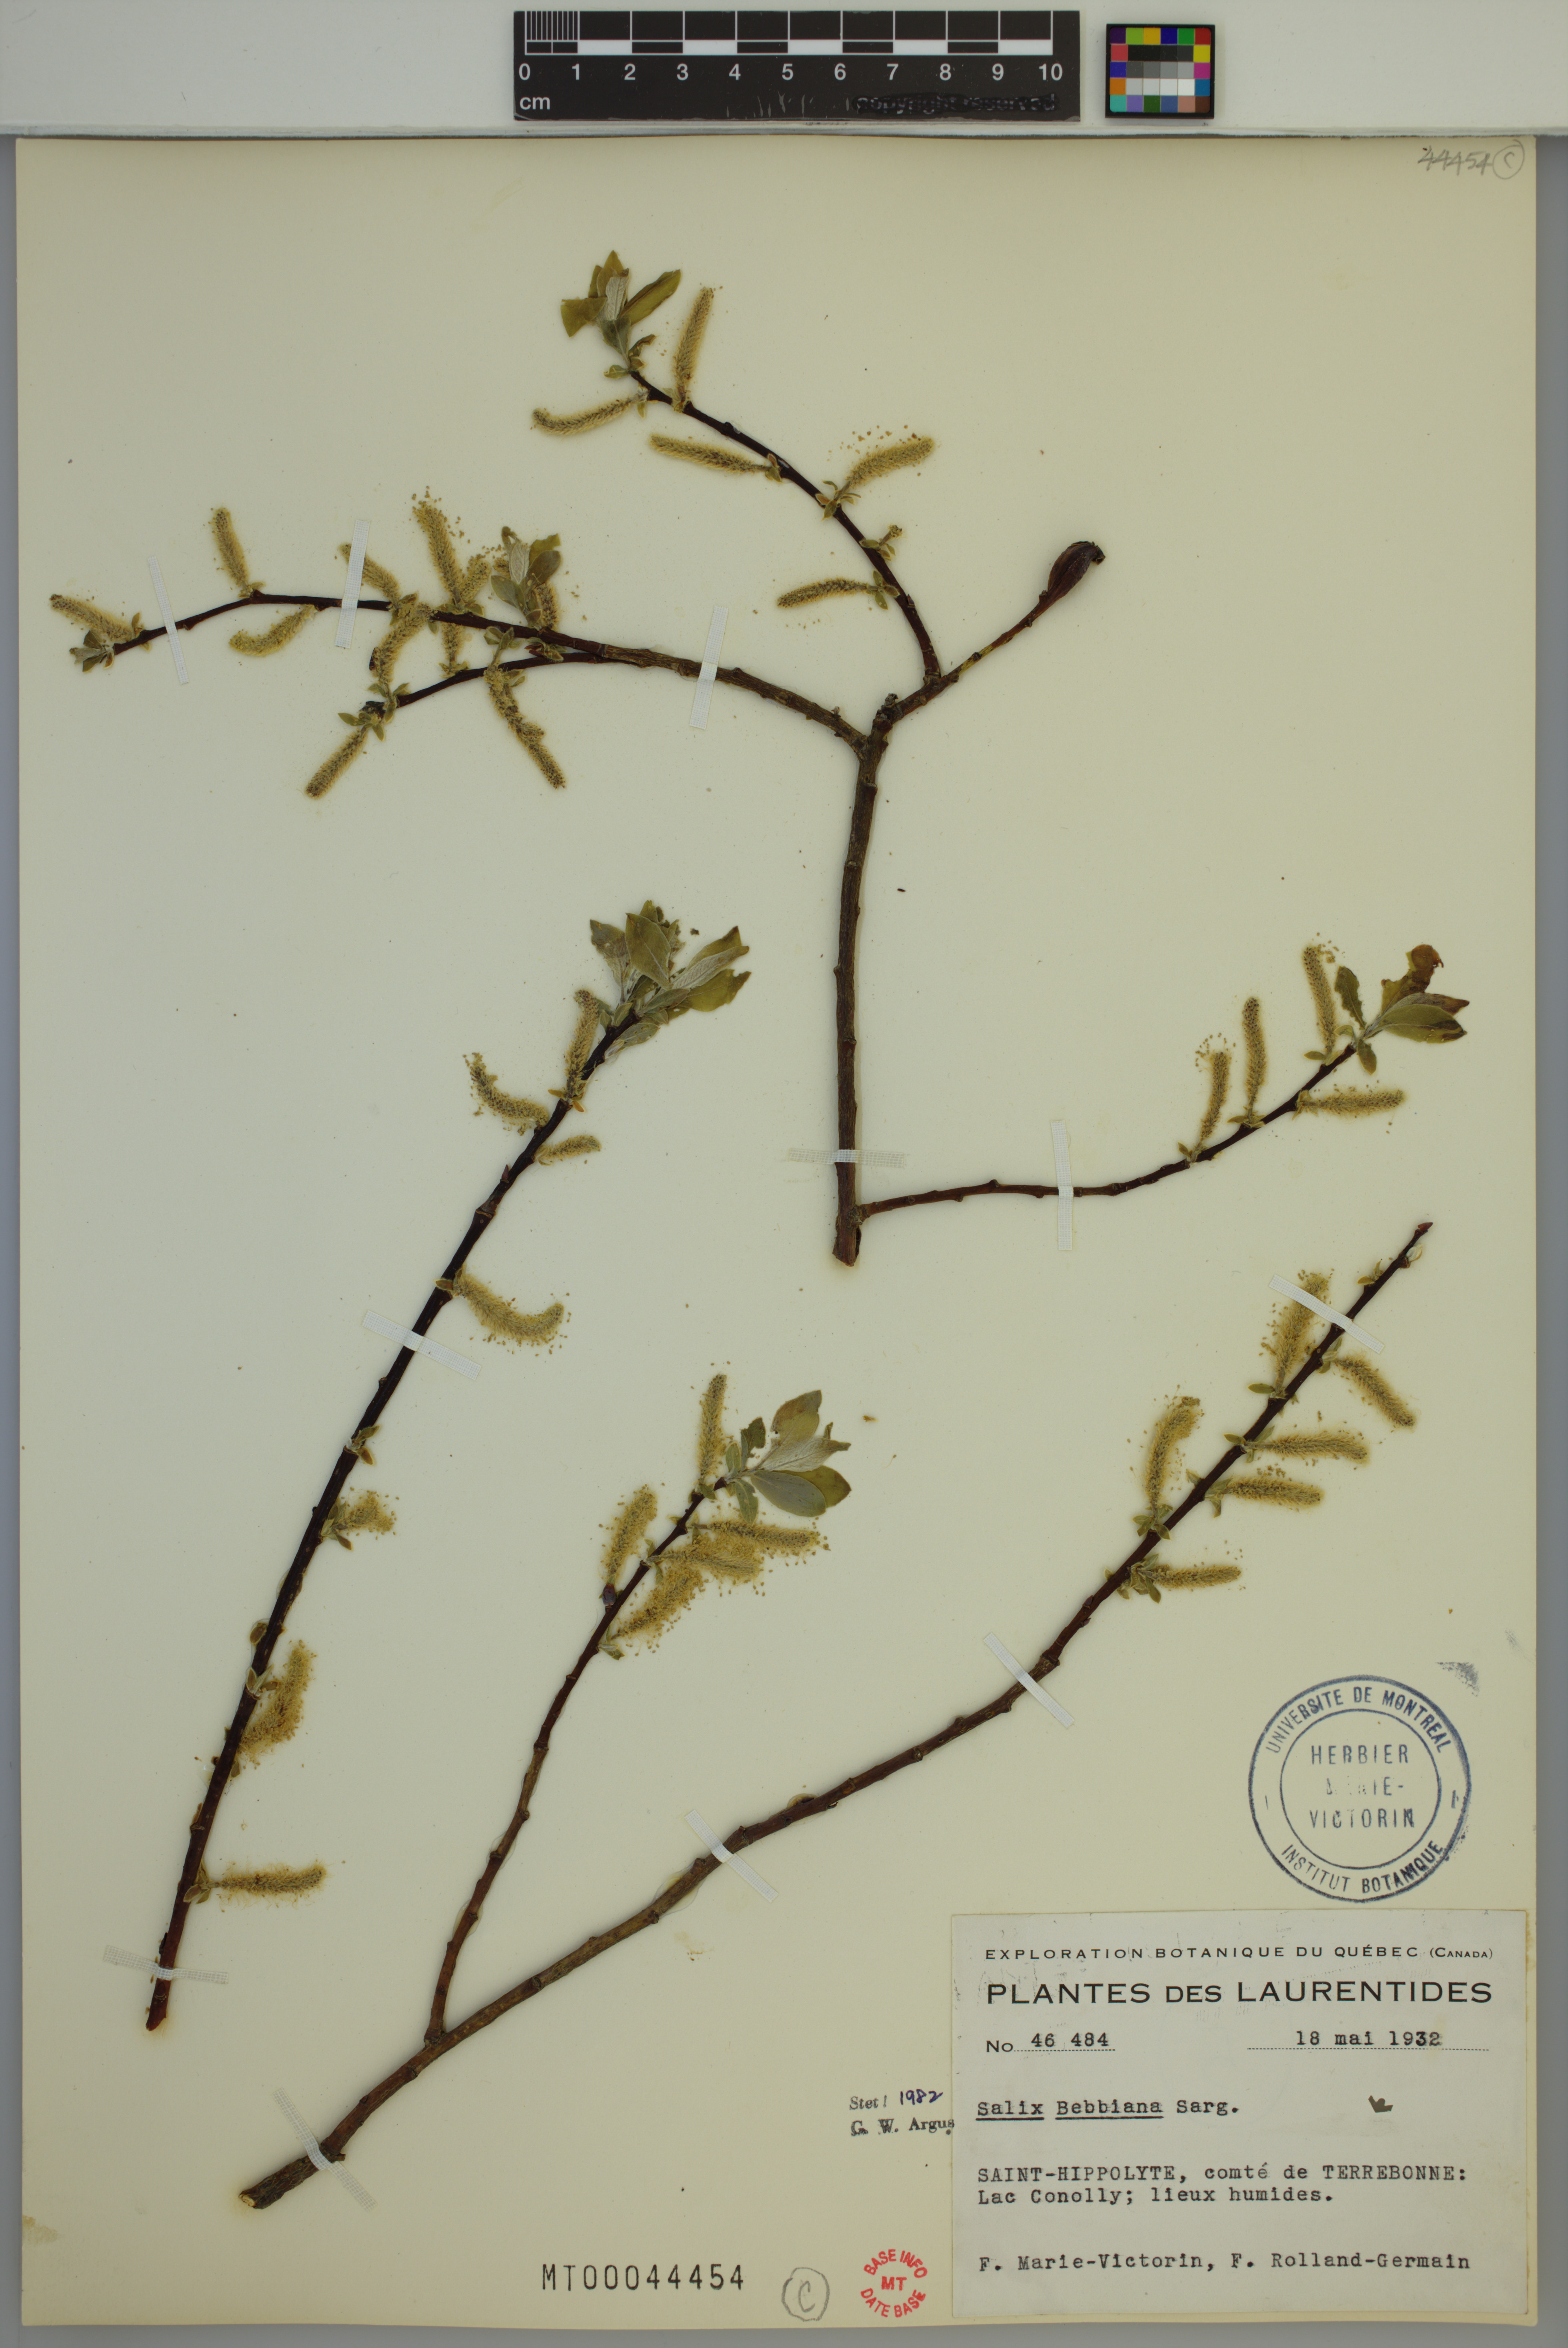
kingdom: Plantae
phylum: Tracheophyta
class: Magnoliopsida
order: Malpighiales
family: Salicaceae
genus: Salix
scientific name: Salix bebbiana
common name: Bebb's willow
